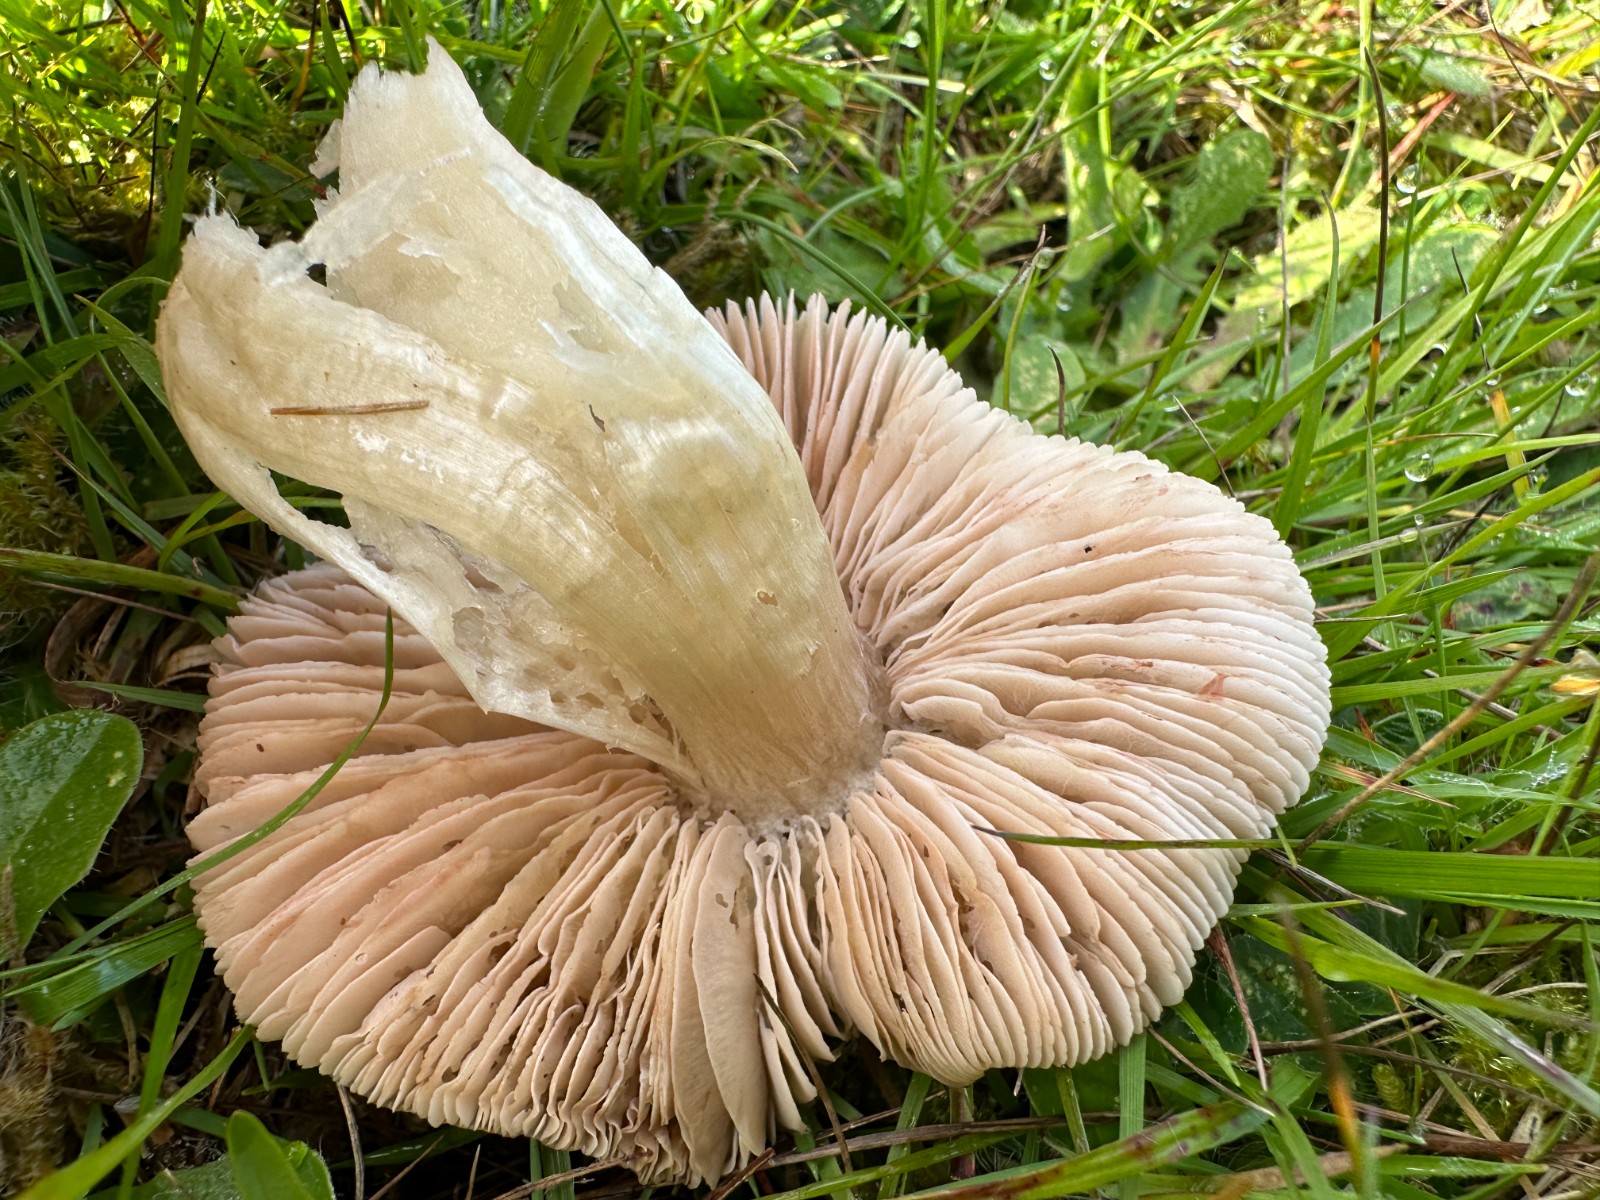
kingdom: Fungi
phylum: Basidiomycota
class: Agaricomycetes
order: Agaricales
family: Entolomataceae
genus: Entoloma
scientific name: Entoloma prunuloides
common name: mel-rødblad
